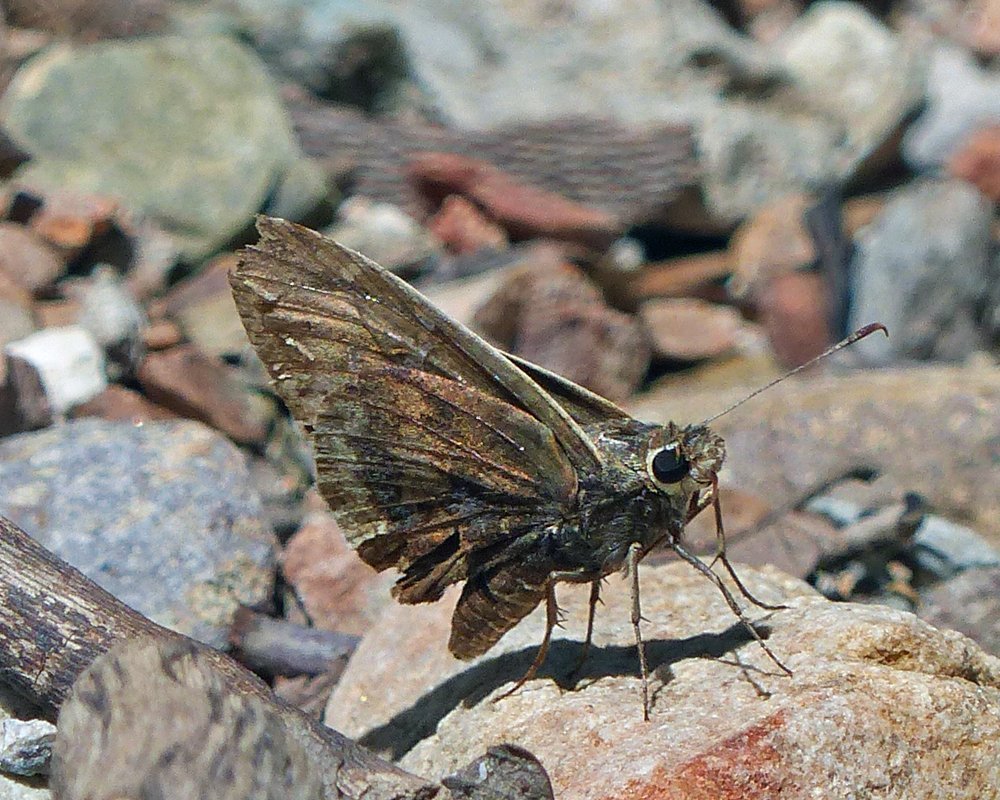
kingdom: Animalia
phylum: Arthropoda
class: Insecta
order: Lepidoptera
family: Hesperiidae
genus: Caicella
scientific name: Caicella caicus
